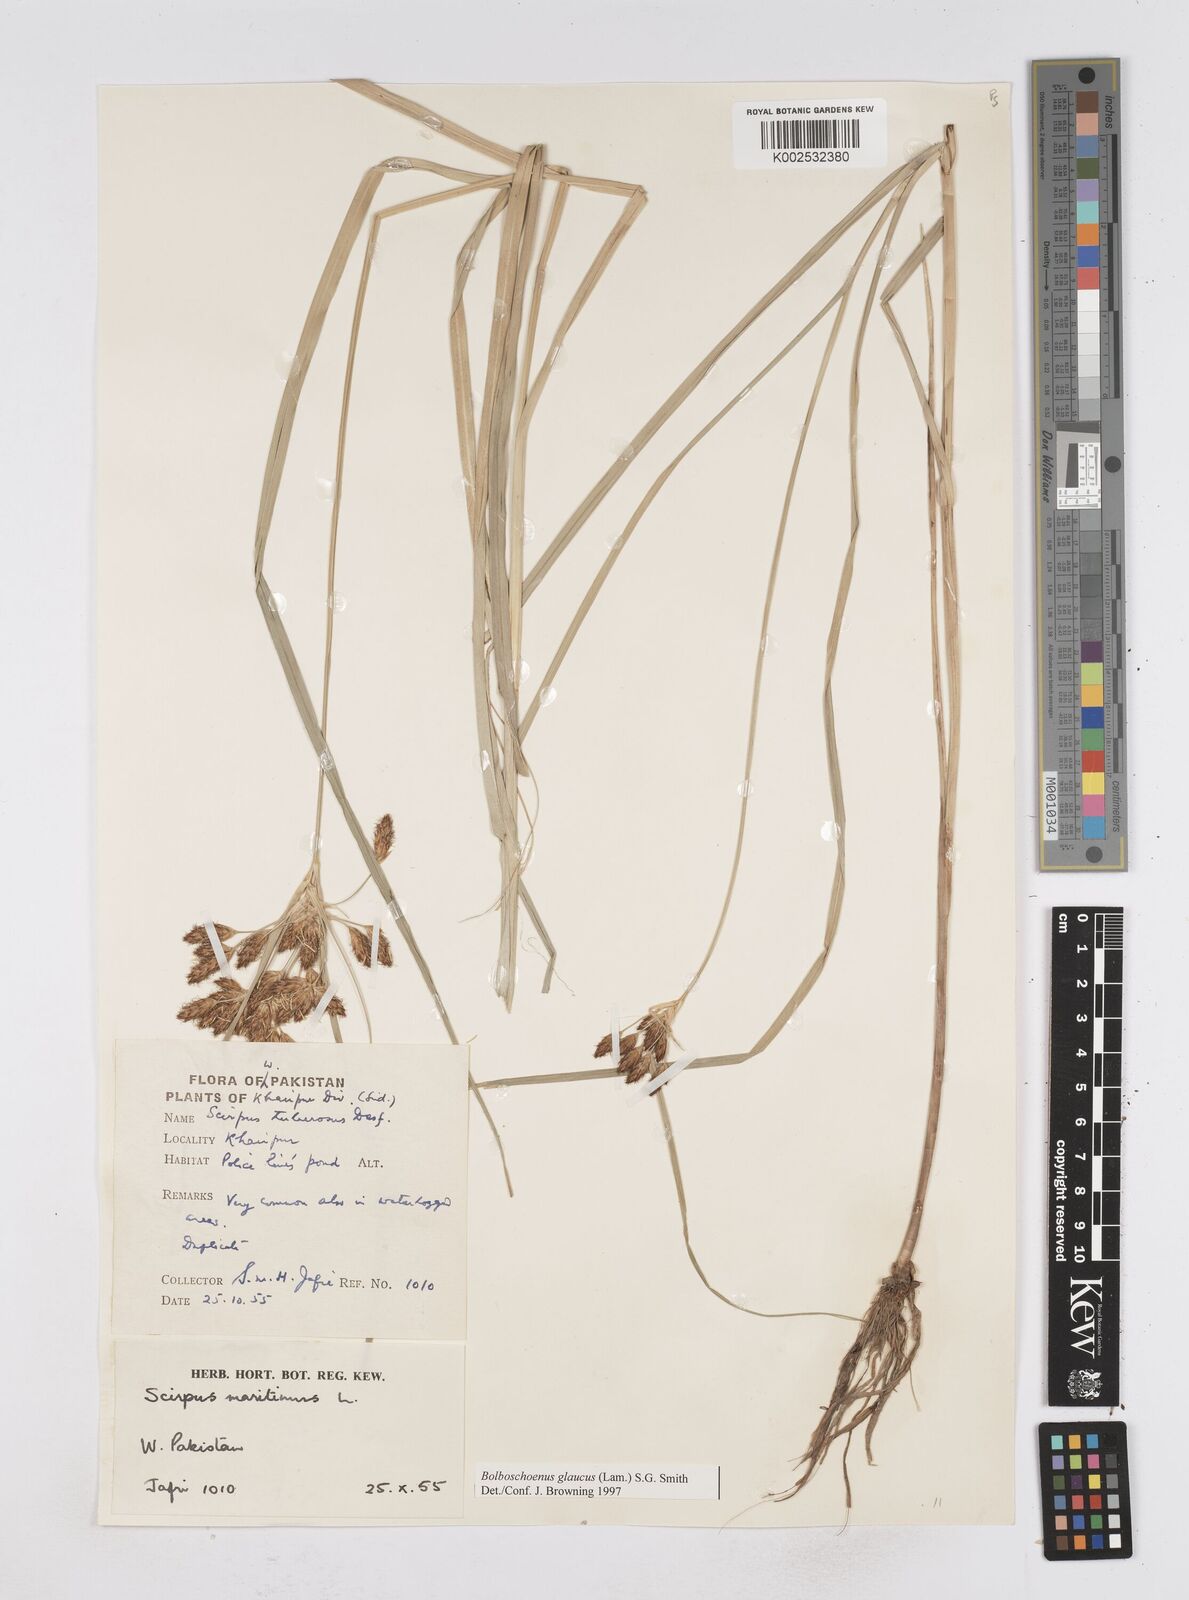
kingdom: Plantae
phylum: Tracheophyta
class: Liliopsida
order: Poales
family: Cyperaceae
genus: Bolboschoenus
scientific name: Bolboschoenus maritimus
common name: Sea club-rush
